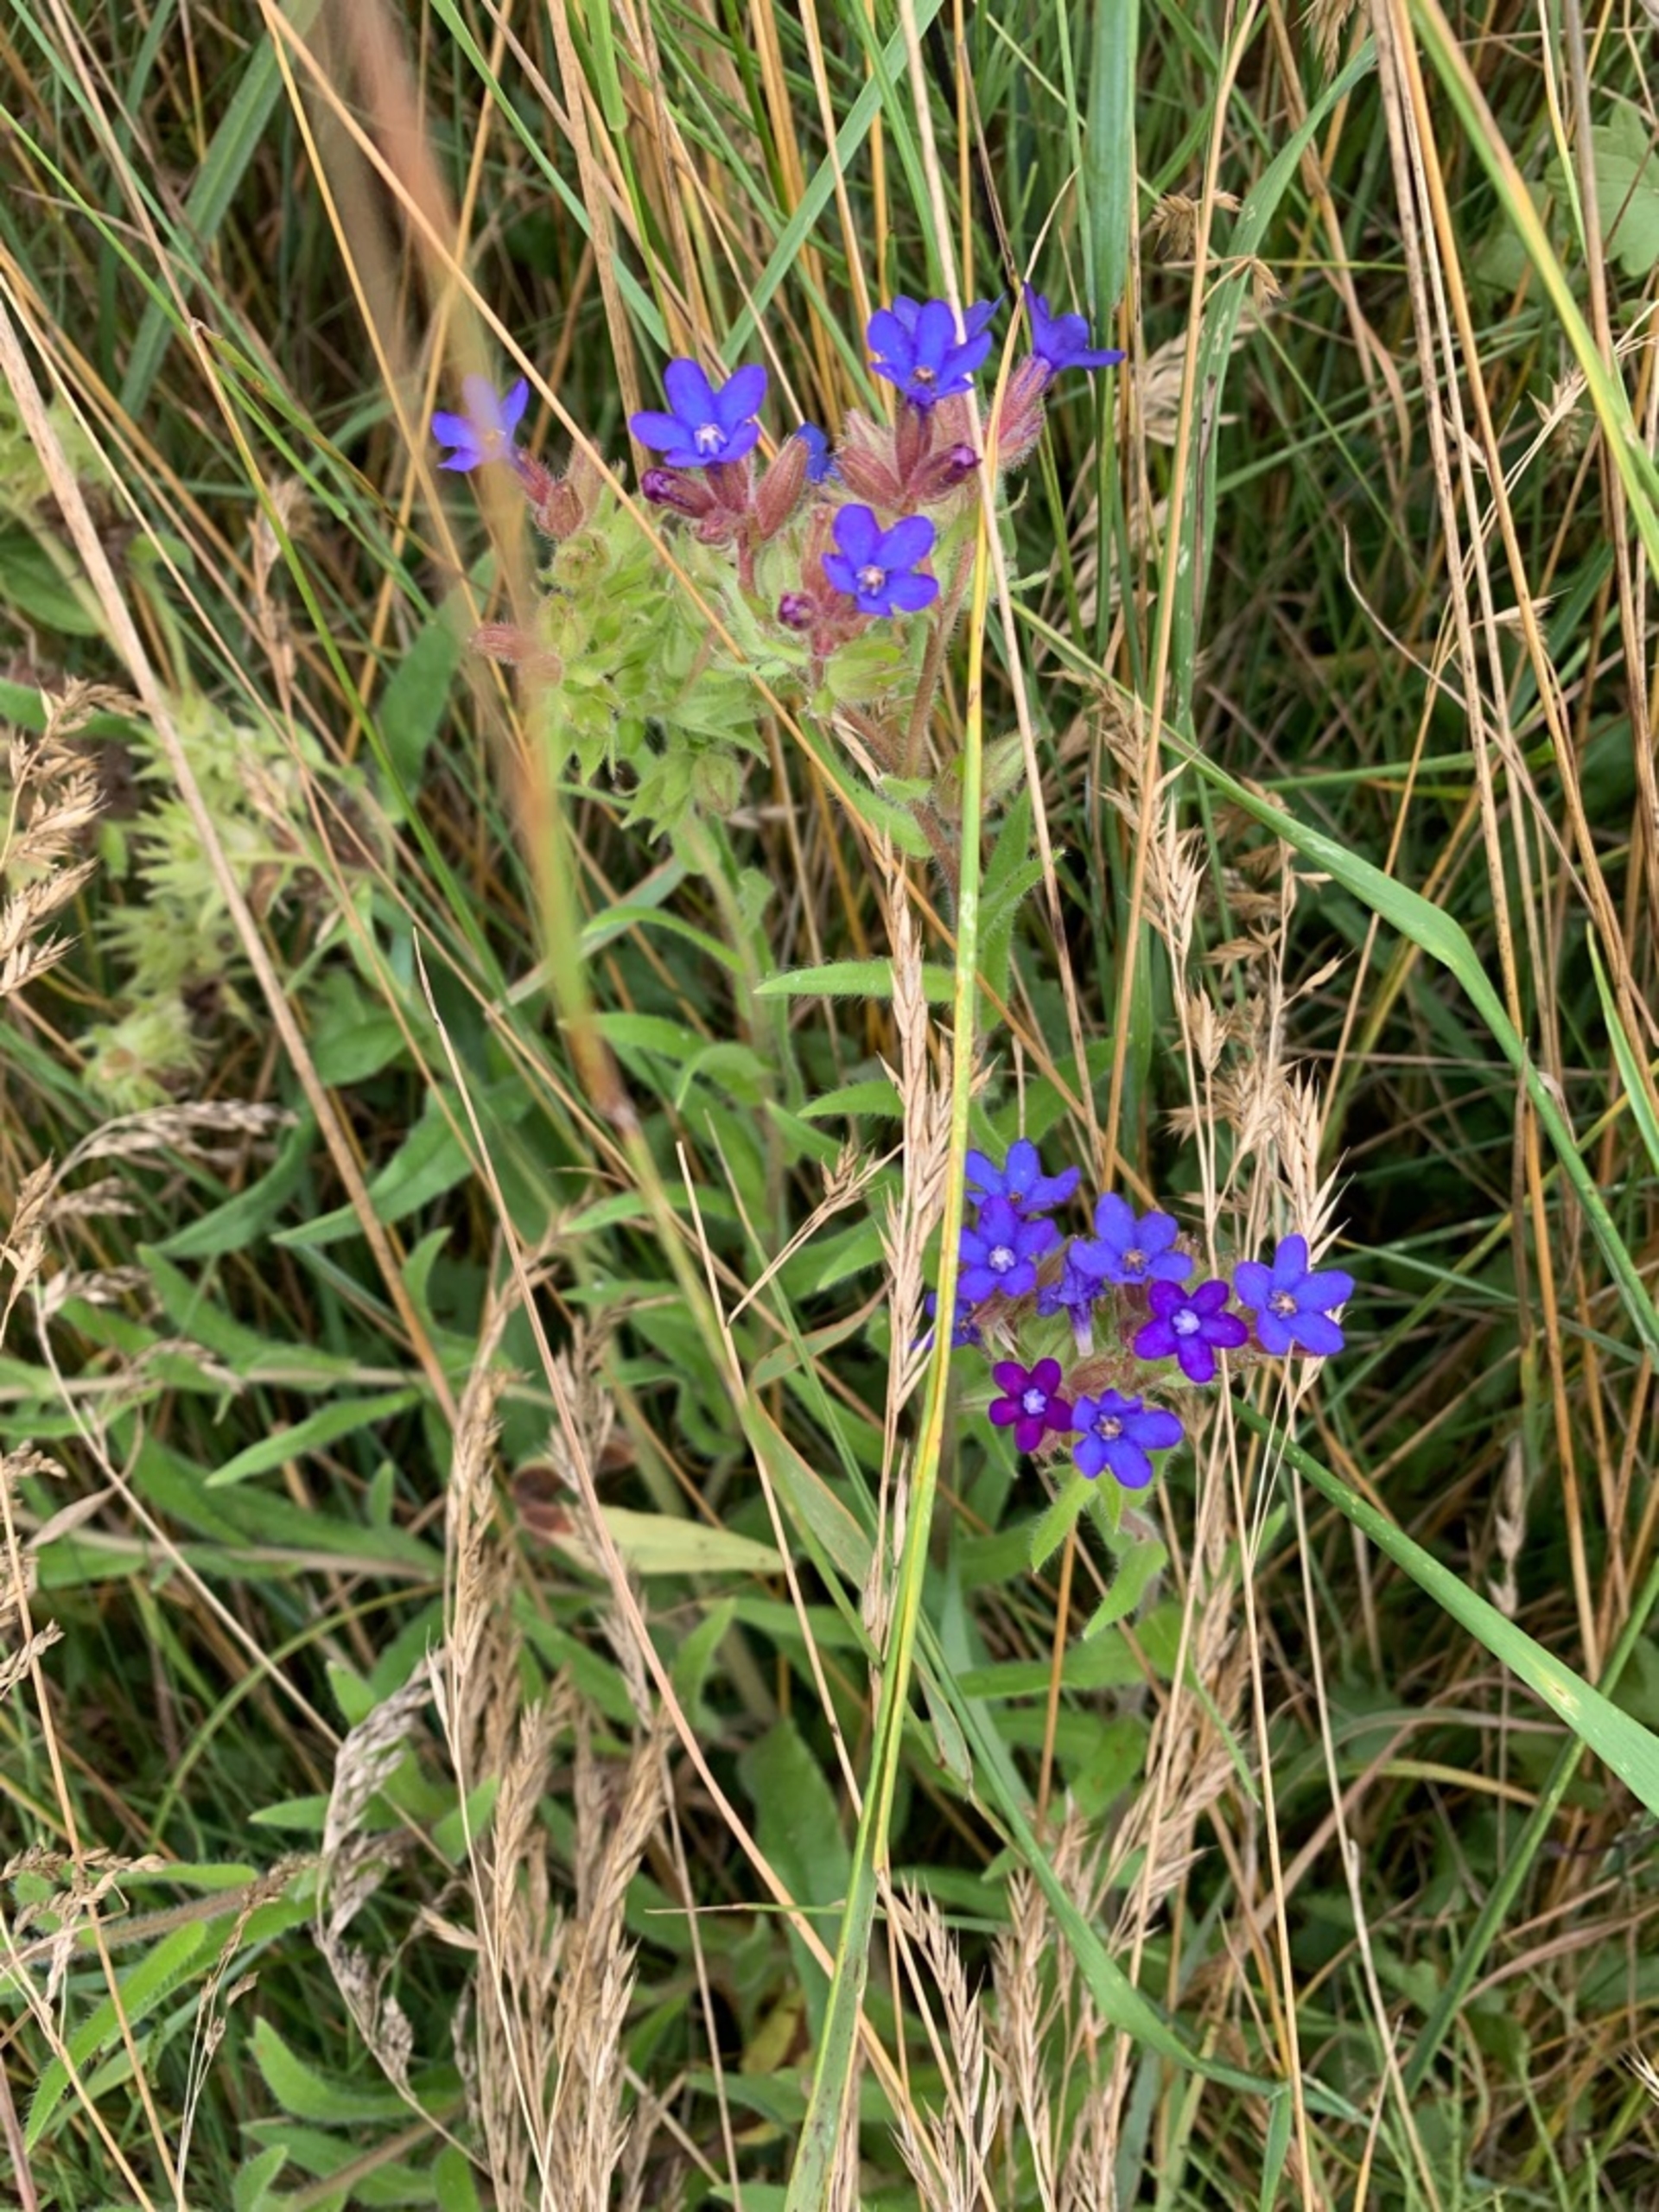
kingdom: Plantae
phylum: Tracheophyta
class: Magnoliopsida
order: Boraginales
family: Boraginaceae
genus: Anchusa
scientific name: Anchusa officinalis
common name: Læge-oksetunge
